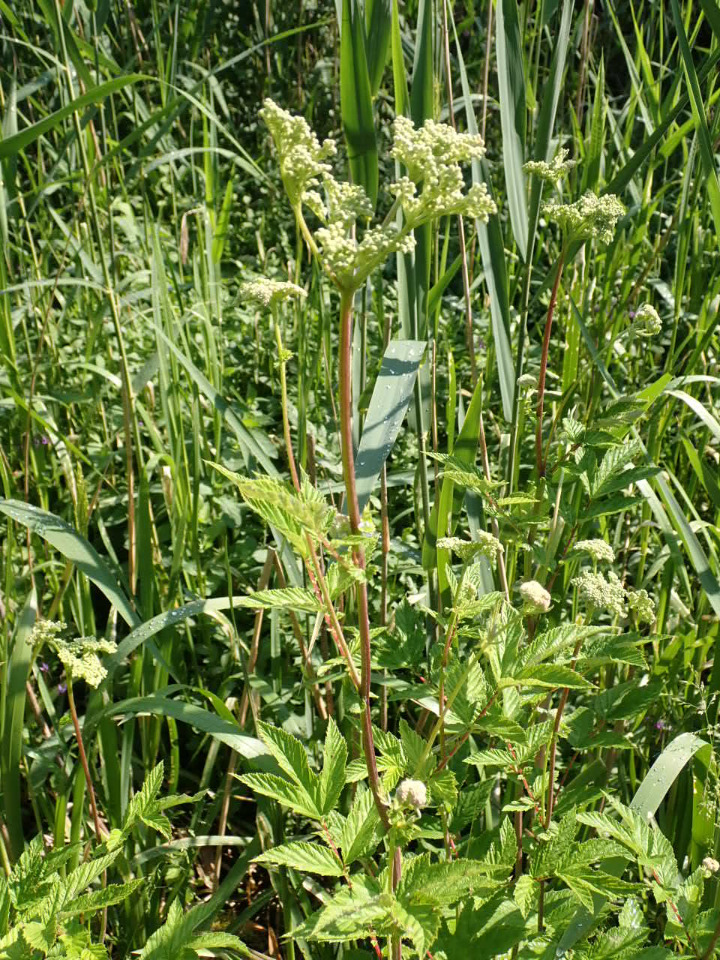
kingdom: Plantae
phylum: Tracheophyta
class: Magnoliopsida
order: Rosales
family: Rosaceae
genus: Filipendula
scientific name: Filipendula ulmaria
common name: Almindelig mjødurt
